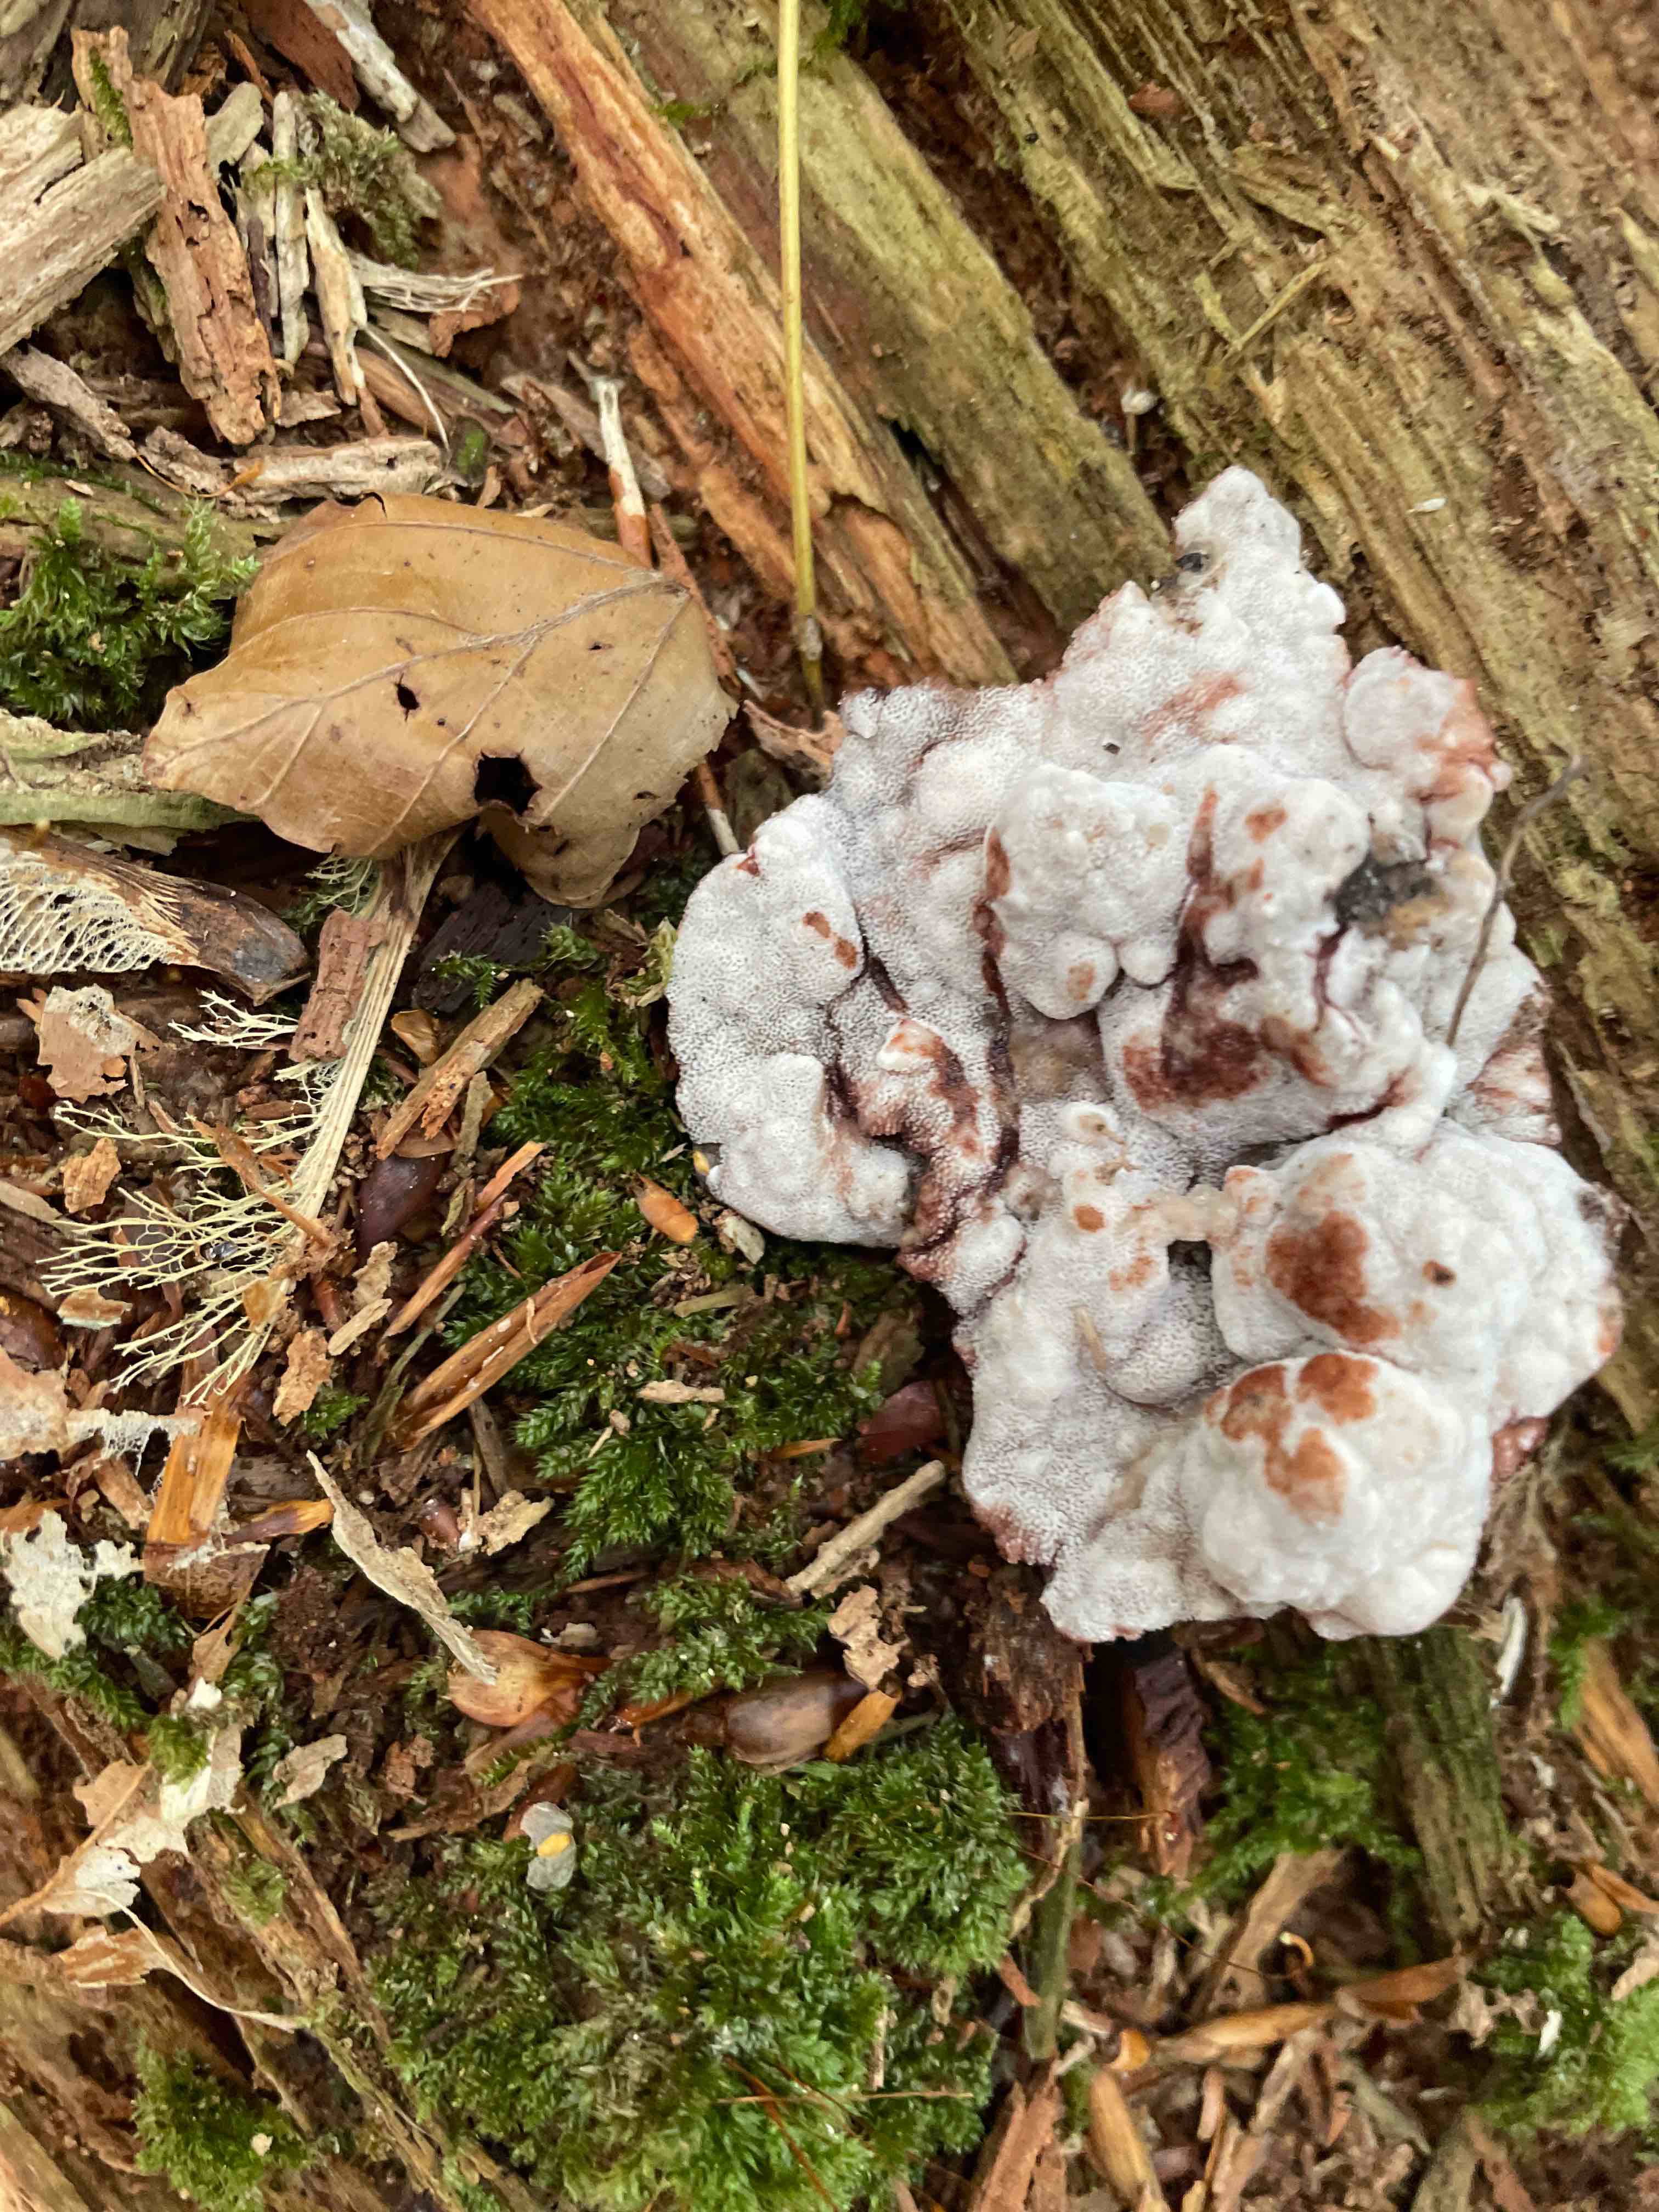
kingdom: Fungi
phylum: Basidiomycota
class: Agaricomycetes
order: Polyporales
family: Meripilaceae
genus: Rigidoporus
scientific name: Rigidoporus sanguinolentus
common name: blod-skorpeporesvamp
